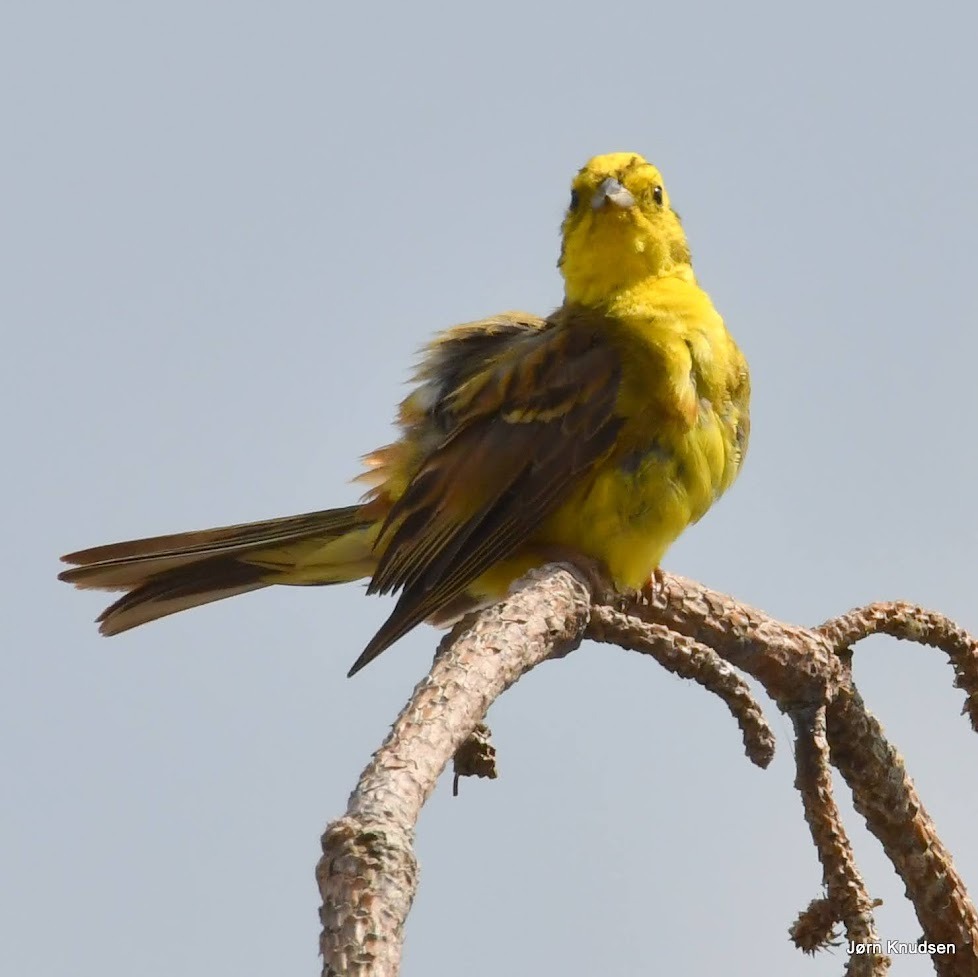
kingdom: Animalia
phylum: Chordata
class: Aves
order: Passeriformes
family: Emberizidae
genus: Emberiza
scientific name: Emberiza citrinella
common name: Gulspurv
